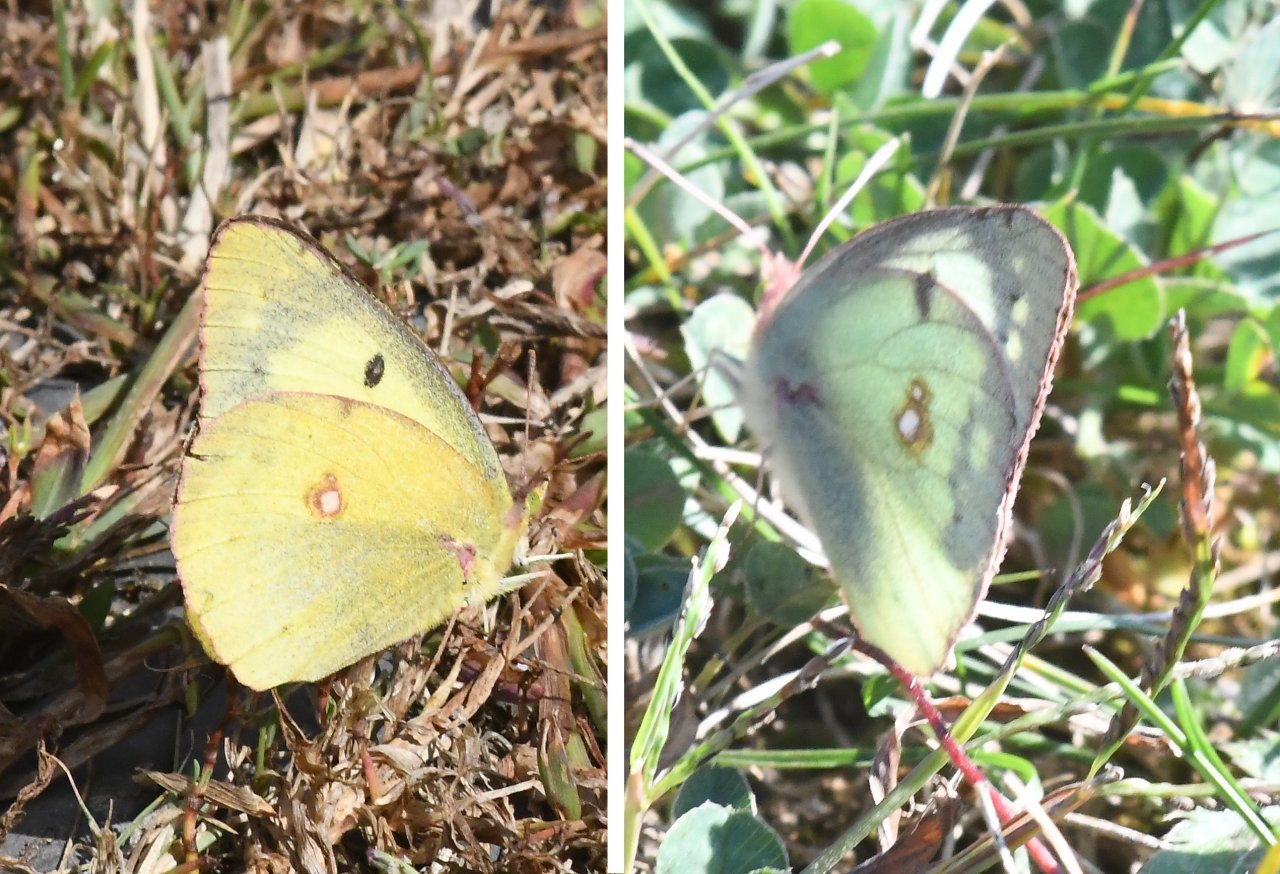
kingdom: Animalia
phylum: Arthropoda
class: Insecta
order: Lepidoptera
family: Pieridae
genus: Colias
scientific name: Colias
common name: Clouded Yellows
